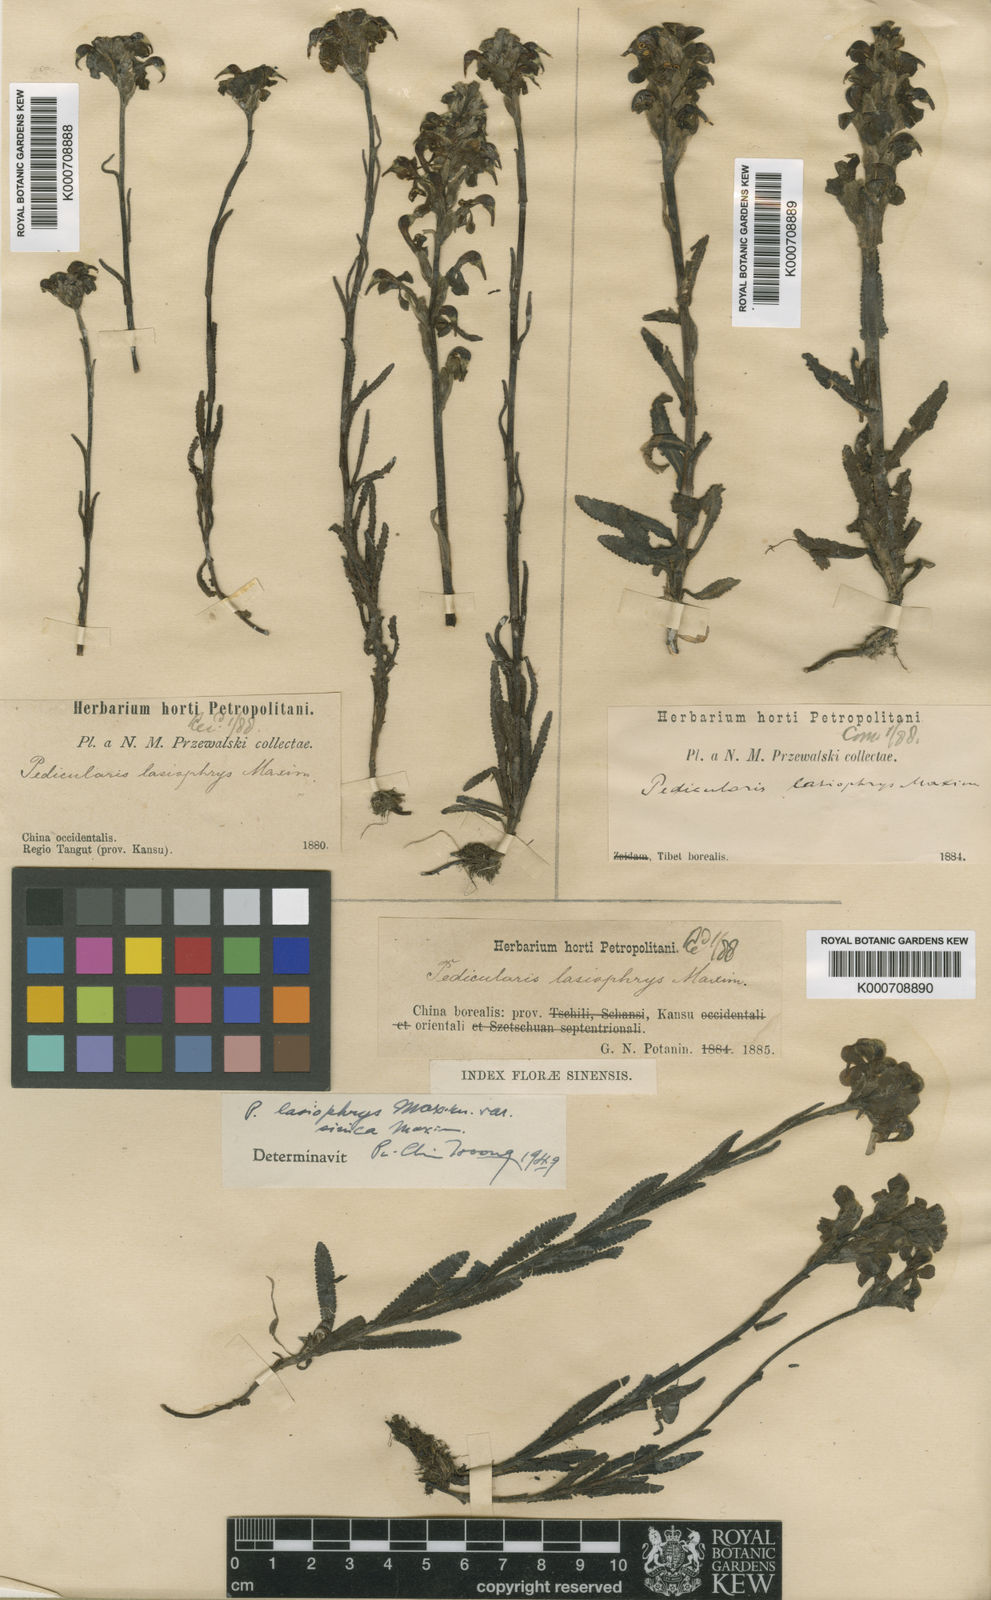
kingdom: Plantae
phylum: Tracheophyta
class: Magnoliopsida
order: Lamiales
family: Orobanchaceae
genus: Pedicularis
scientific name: Pedicularis lasiophrys
